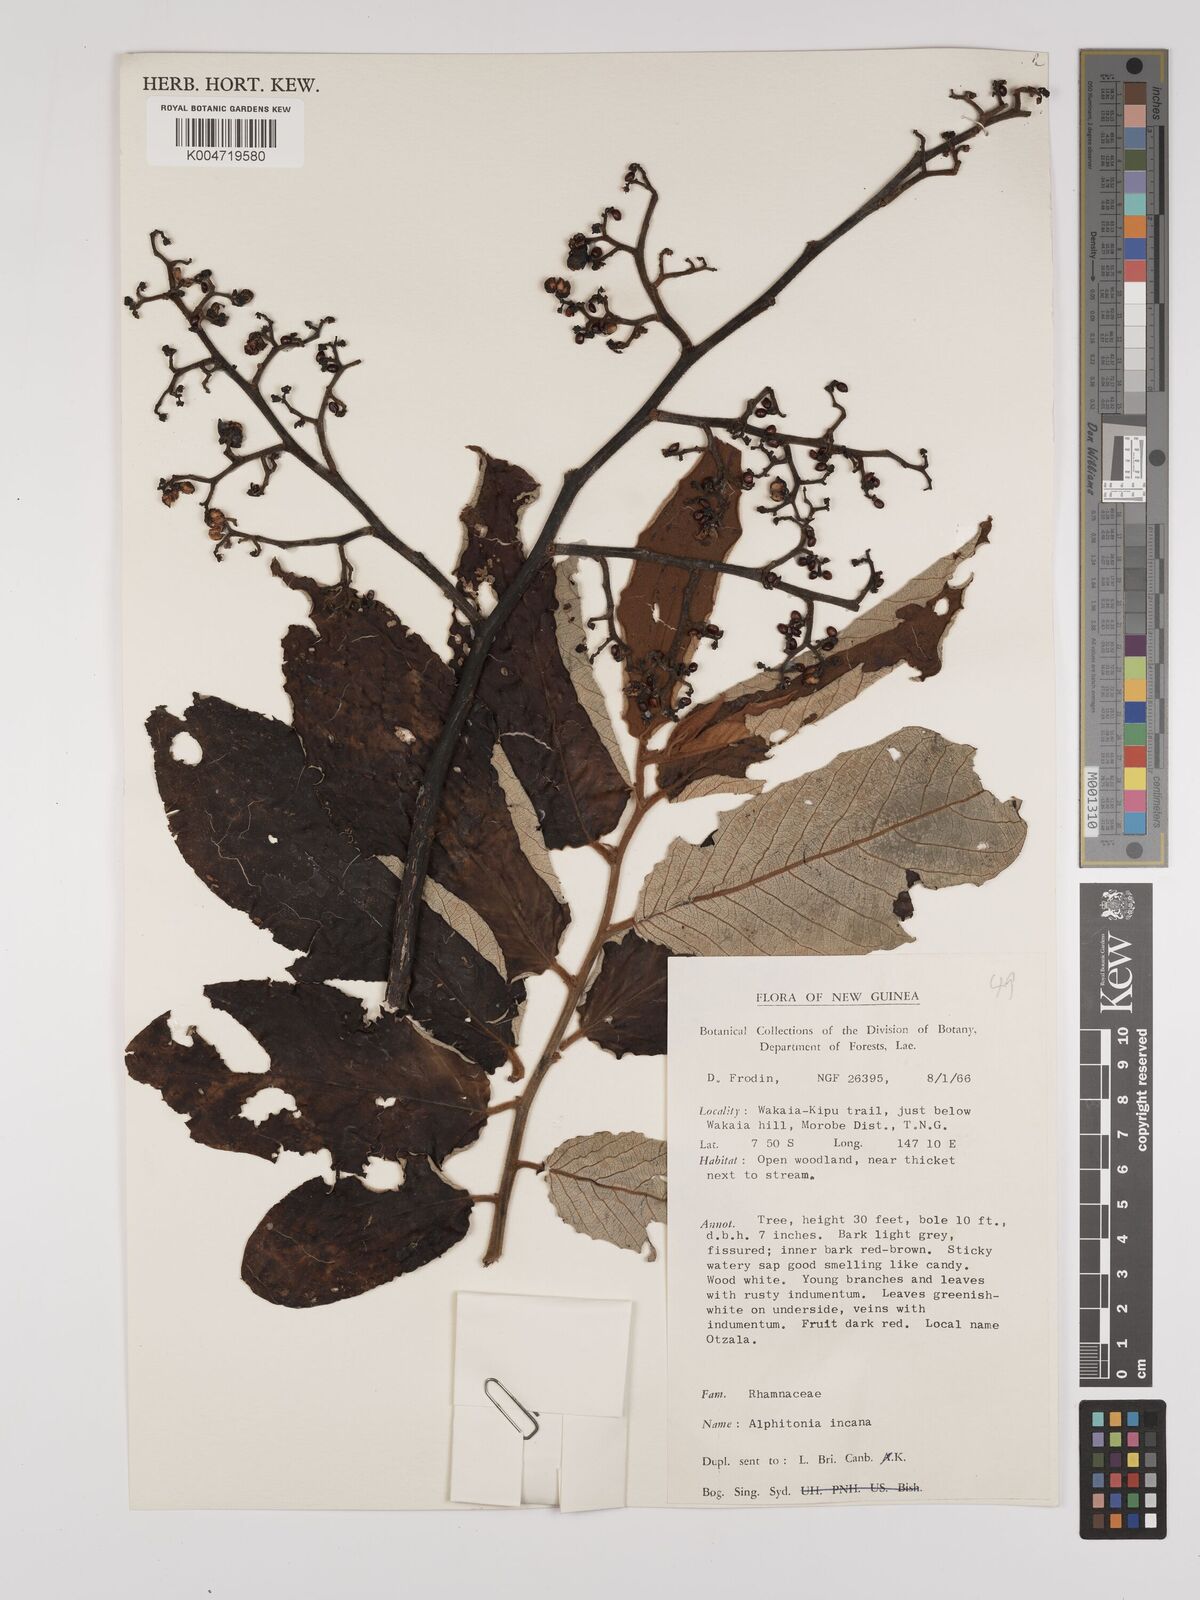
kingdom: Plantae
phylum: Tracheophyta
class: Magnoliopsida
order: Rosales
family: Rhamnaceae
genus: Alphitonia
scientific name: Alphitonia incana
